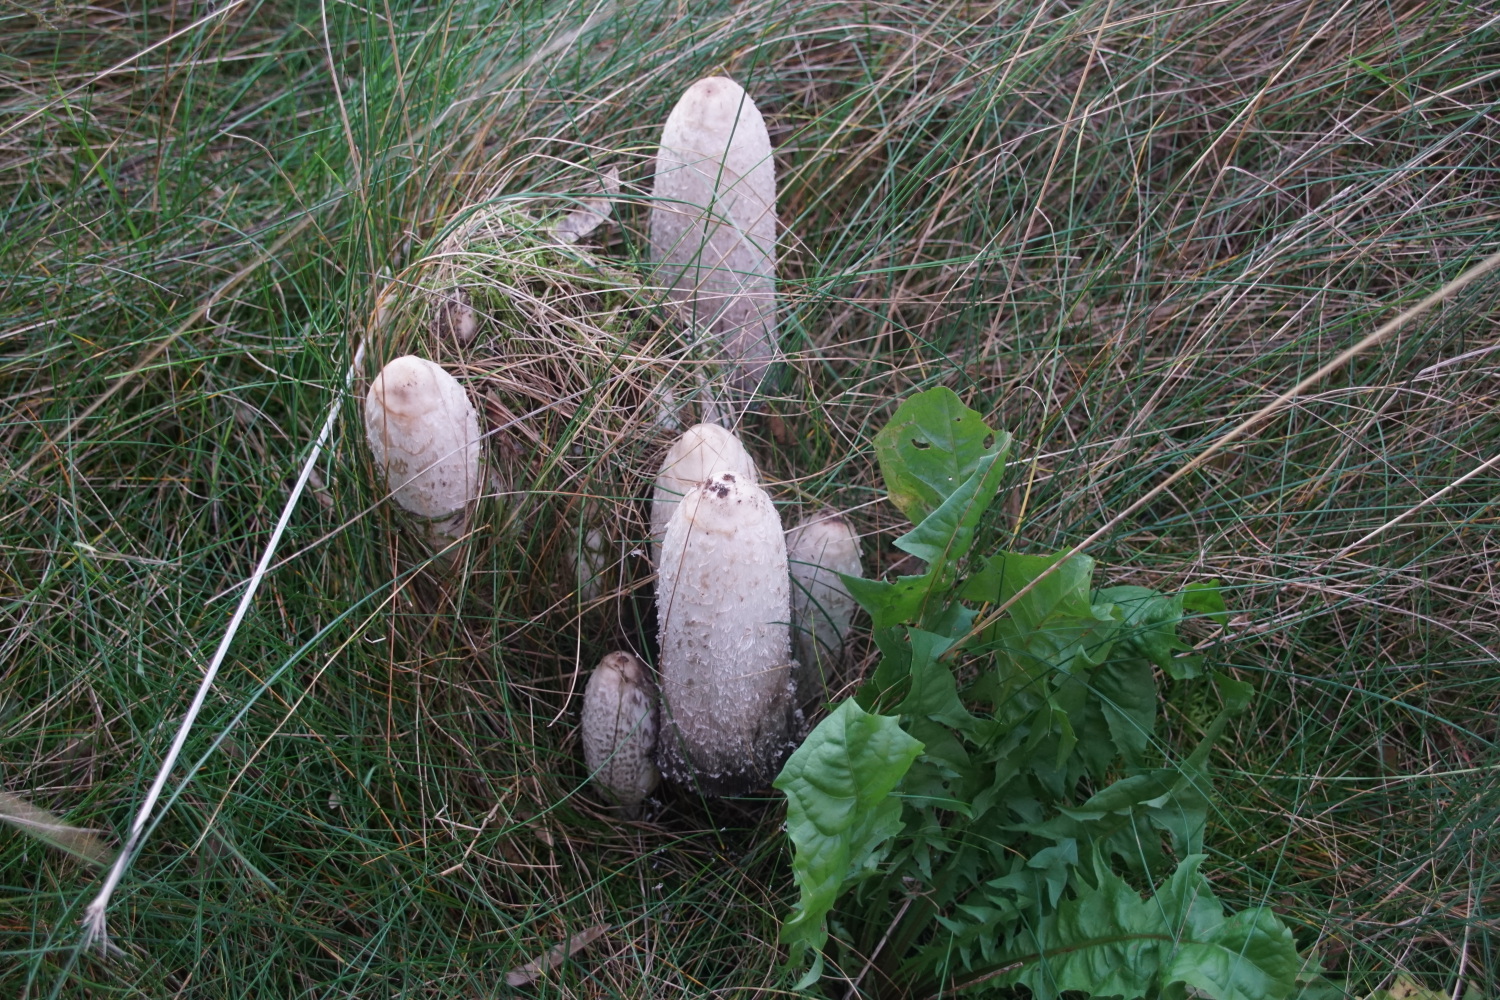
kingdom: Fungi
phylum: Basidiomycota
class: Agaricomycetes
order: Agaricales
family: Agaricaceae
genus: Coprinus
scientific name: Coprinus comatus
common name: stor parykhat
